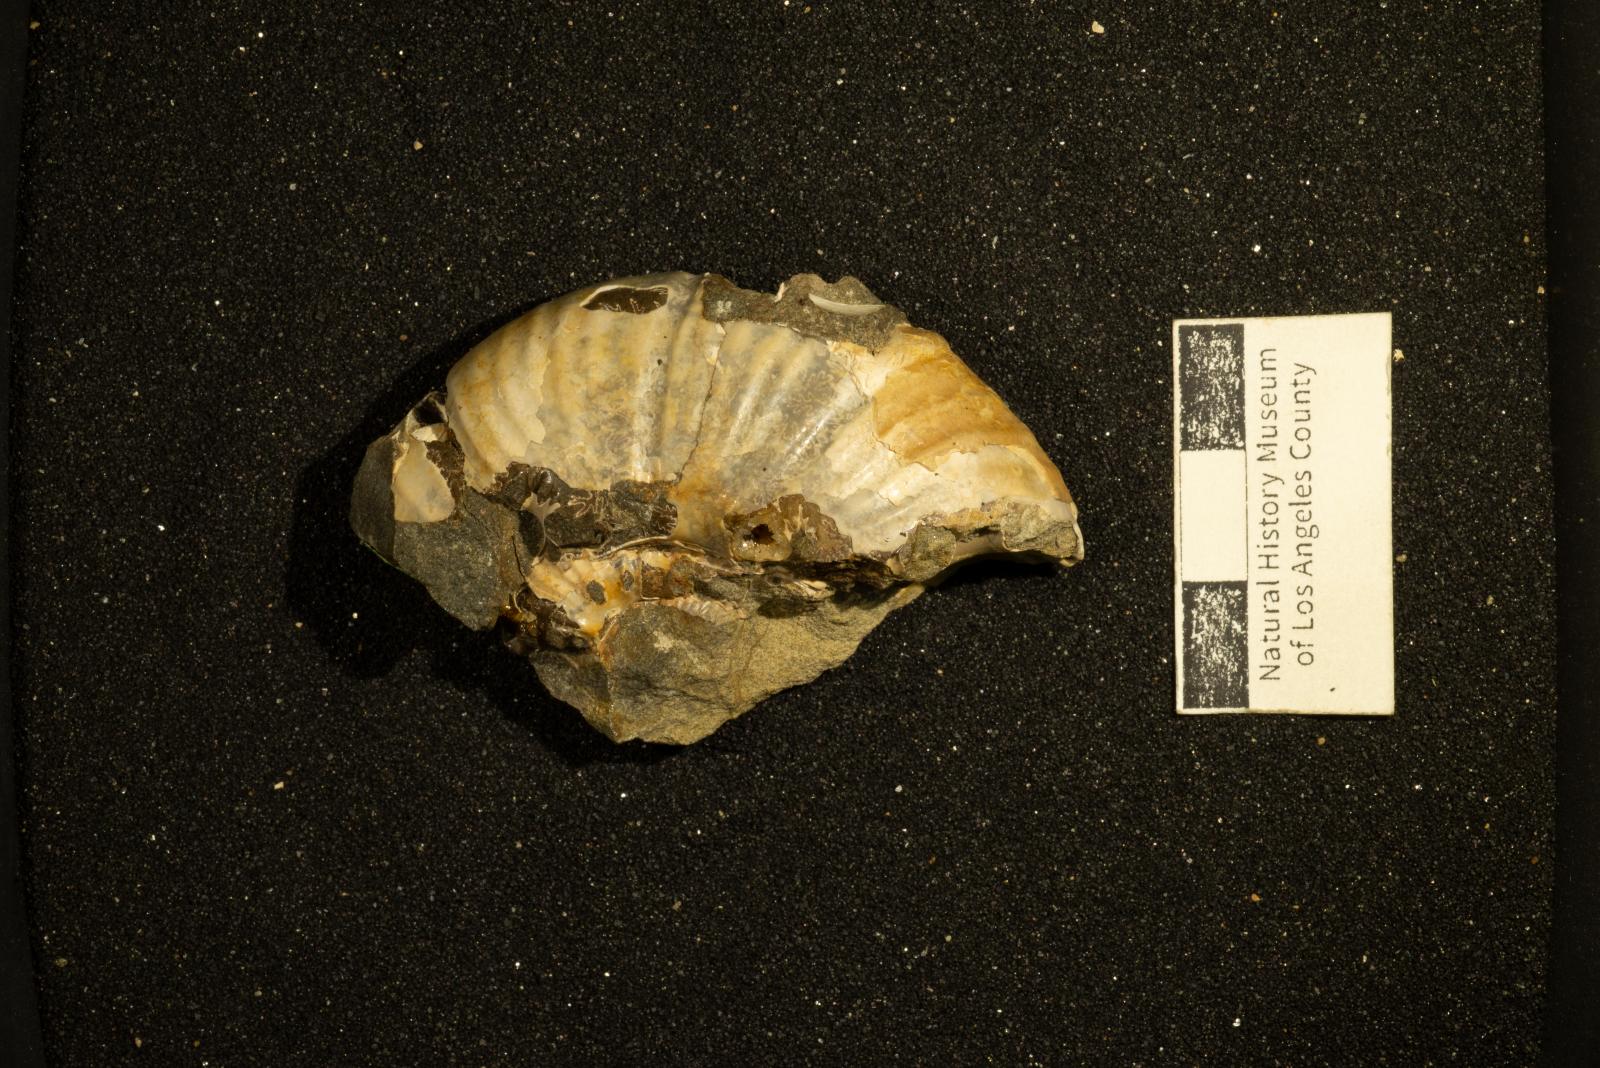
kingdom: Animalia
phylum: Mollusca
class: Cephalopoda
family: Pachydiscidae
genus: Canadoceras
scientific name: Canadoceras yokoyamai
